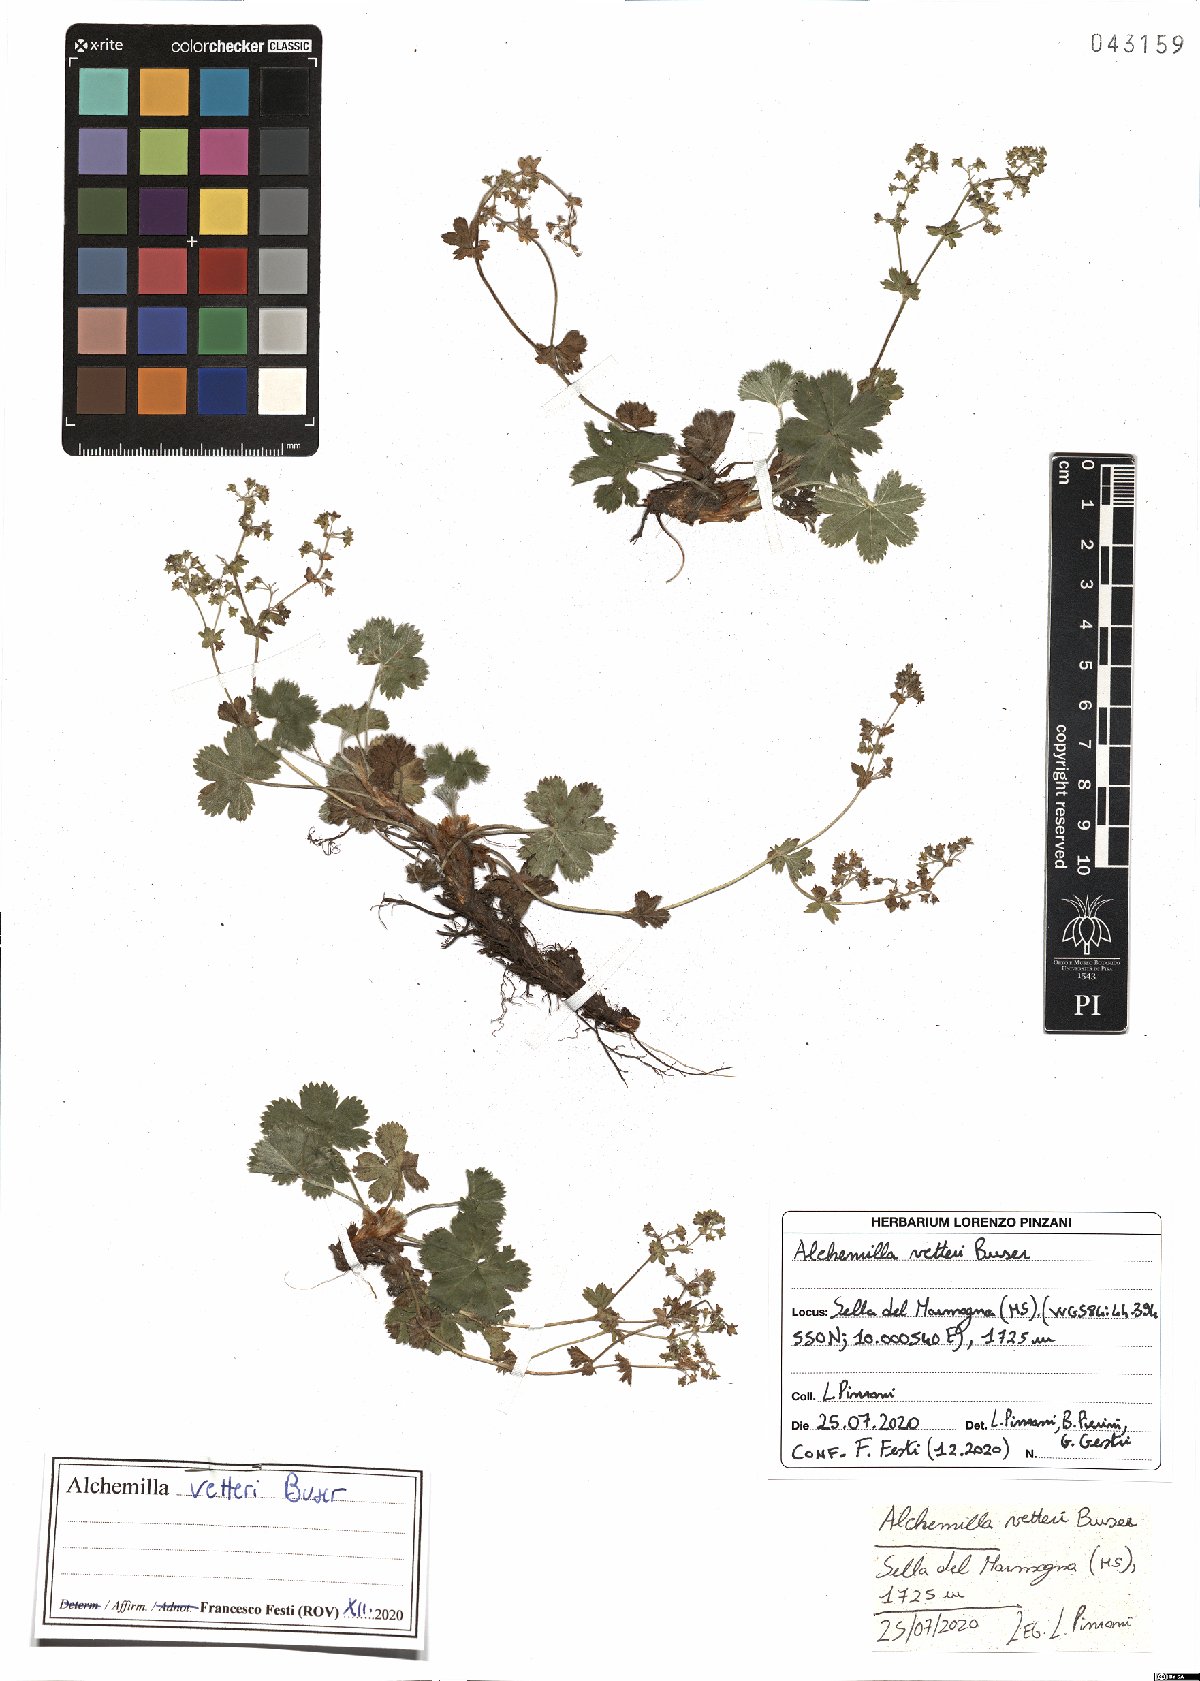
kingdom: Plantae
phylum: Tracheophyta
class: Magnoliopsida
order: Rosales
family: Rosaceae
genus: Alchemilla
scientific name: Alchemilla vetteri
